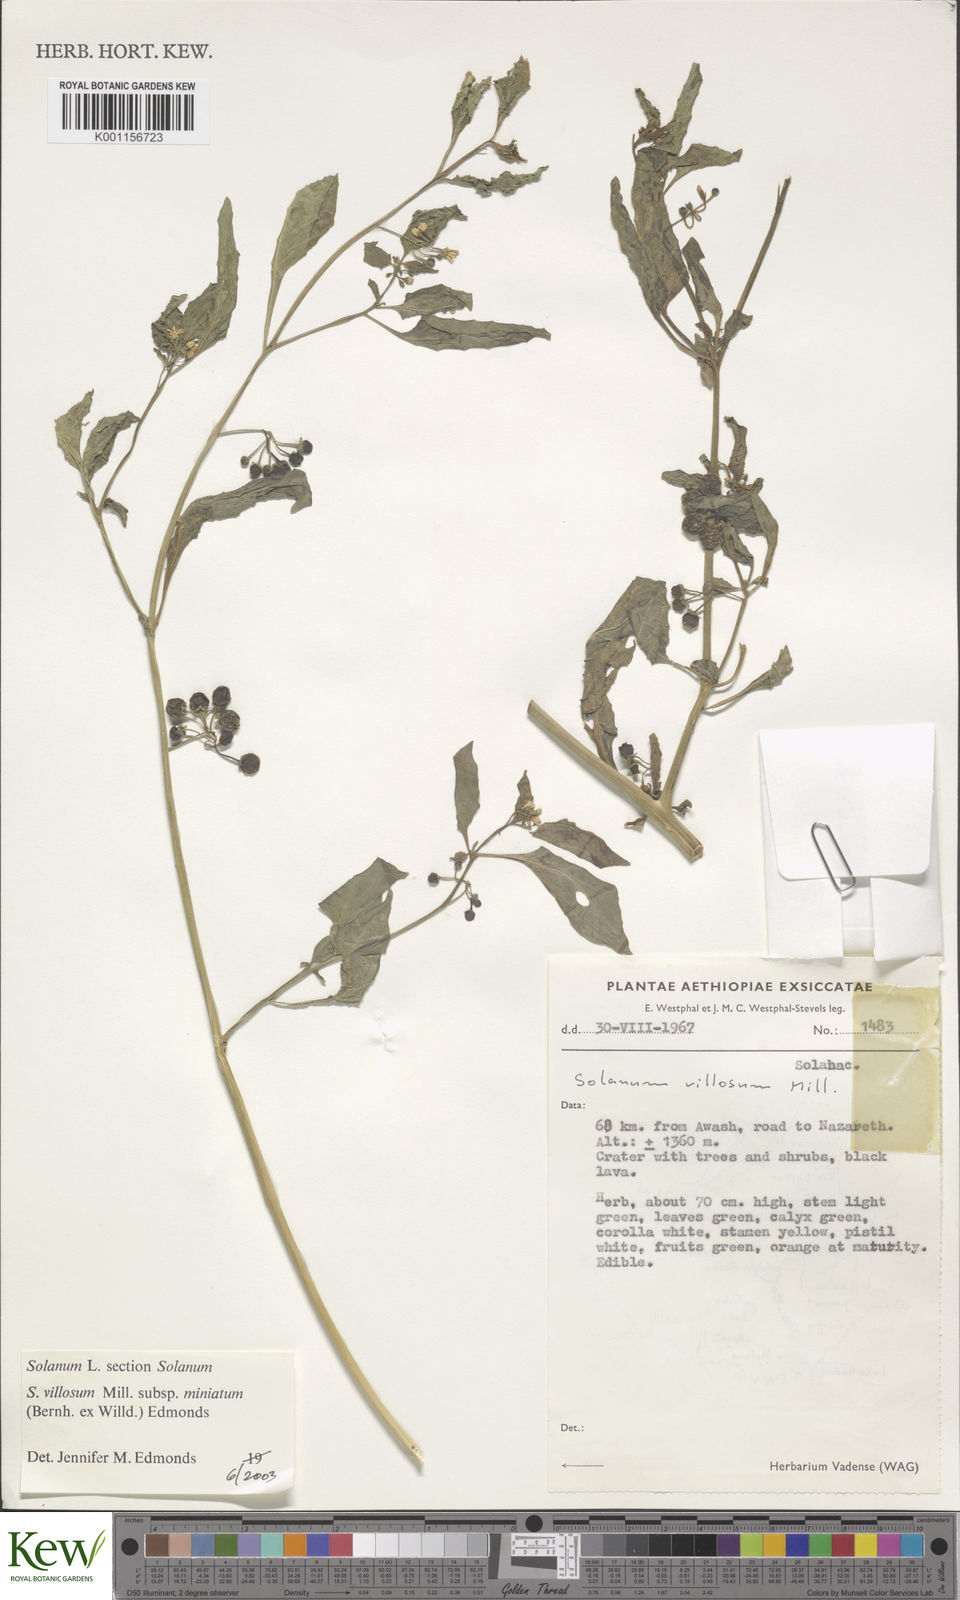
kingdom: Plantae
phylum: Tracheophyta
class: Magnoliopsida
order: Solanales
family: Solanaceae
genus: Solanum
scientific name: Solanum villosum
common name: Red nightshade
